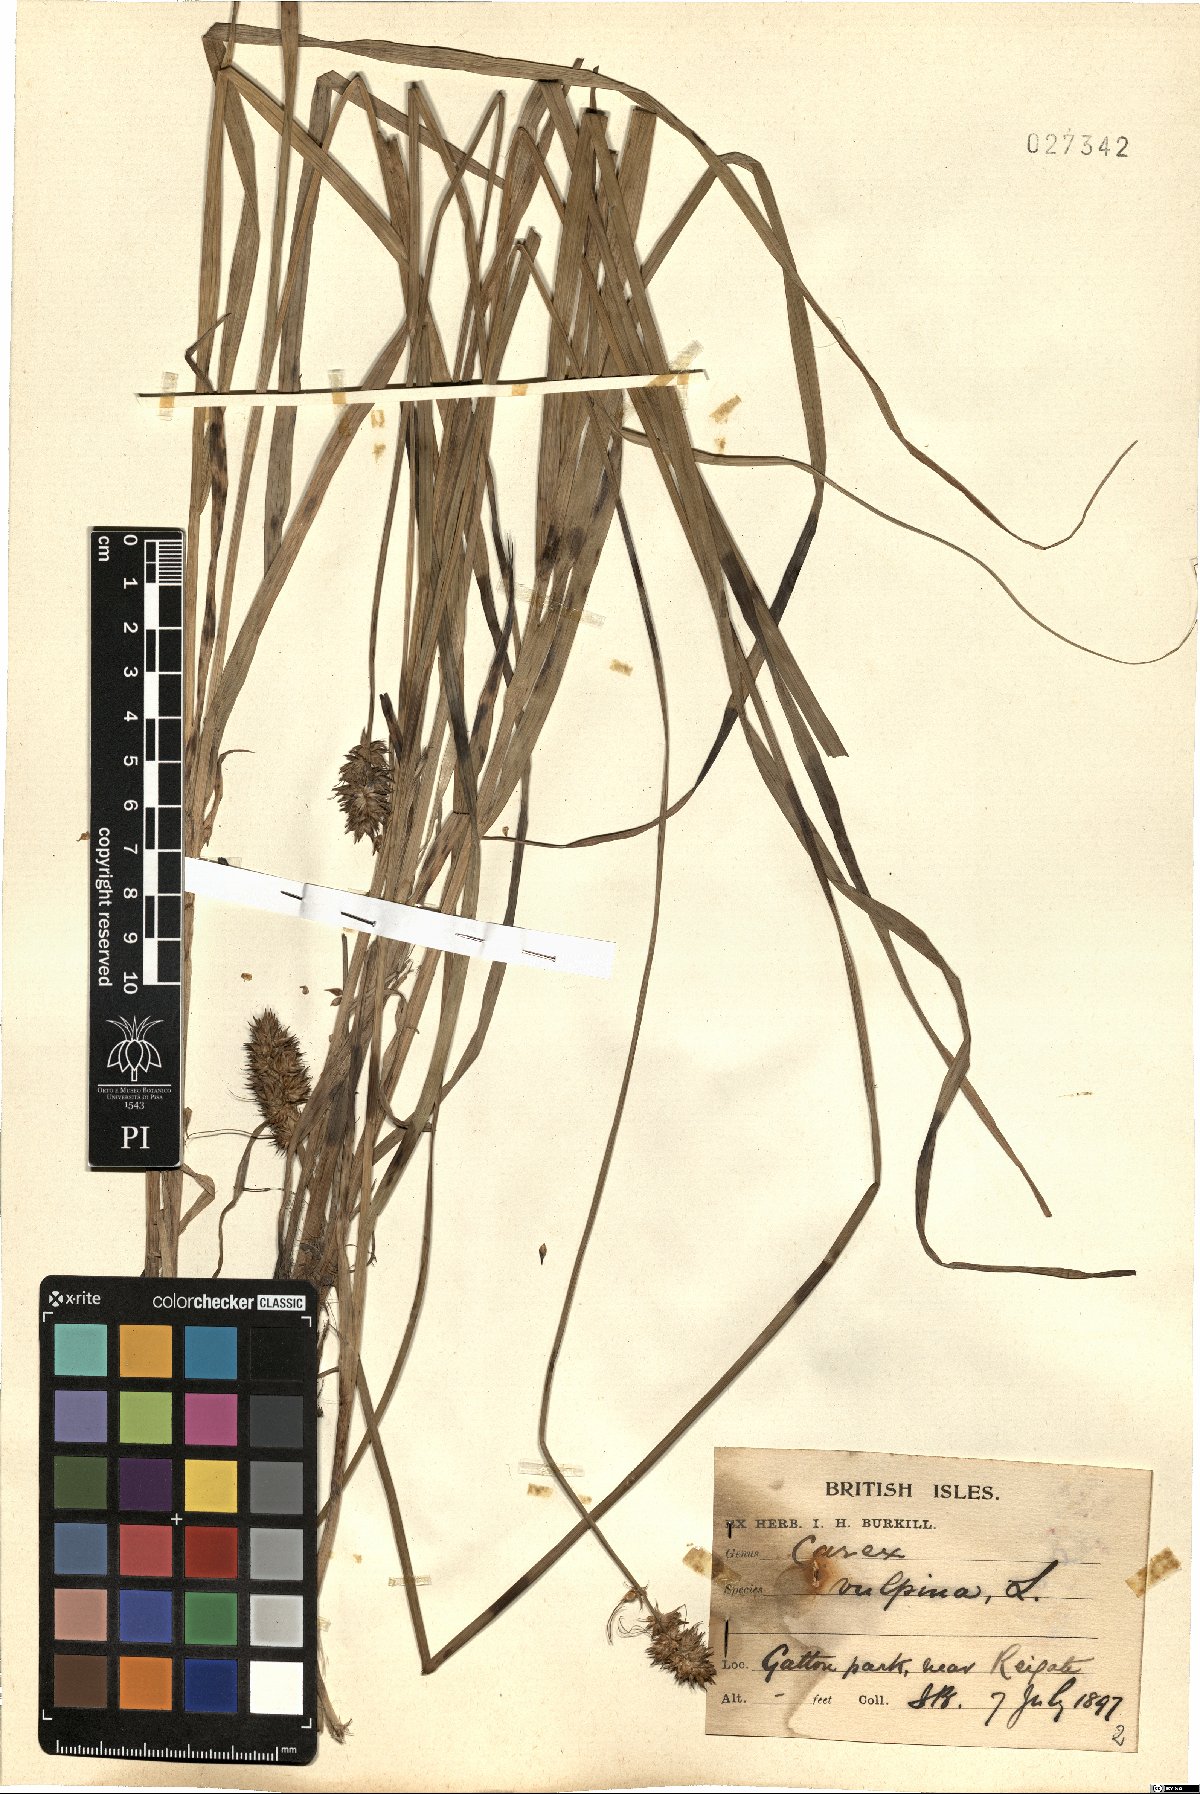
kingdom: Plantae
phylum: Tracheophyta
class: Liliopsida
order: Poales
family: Cyperaceae
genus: Carex
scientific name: Carex vulpina
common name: True fox-sedge
